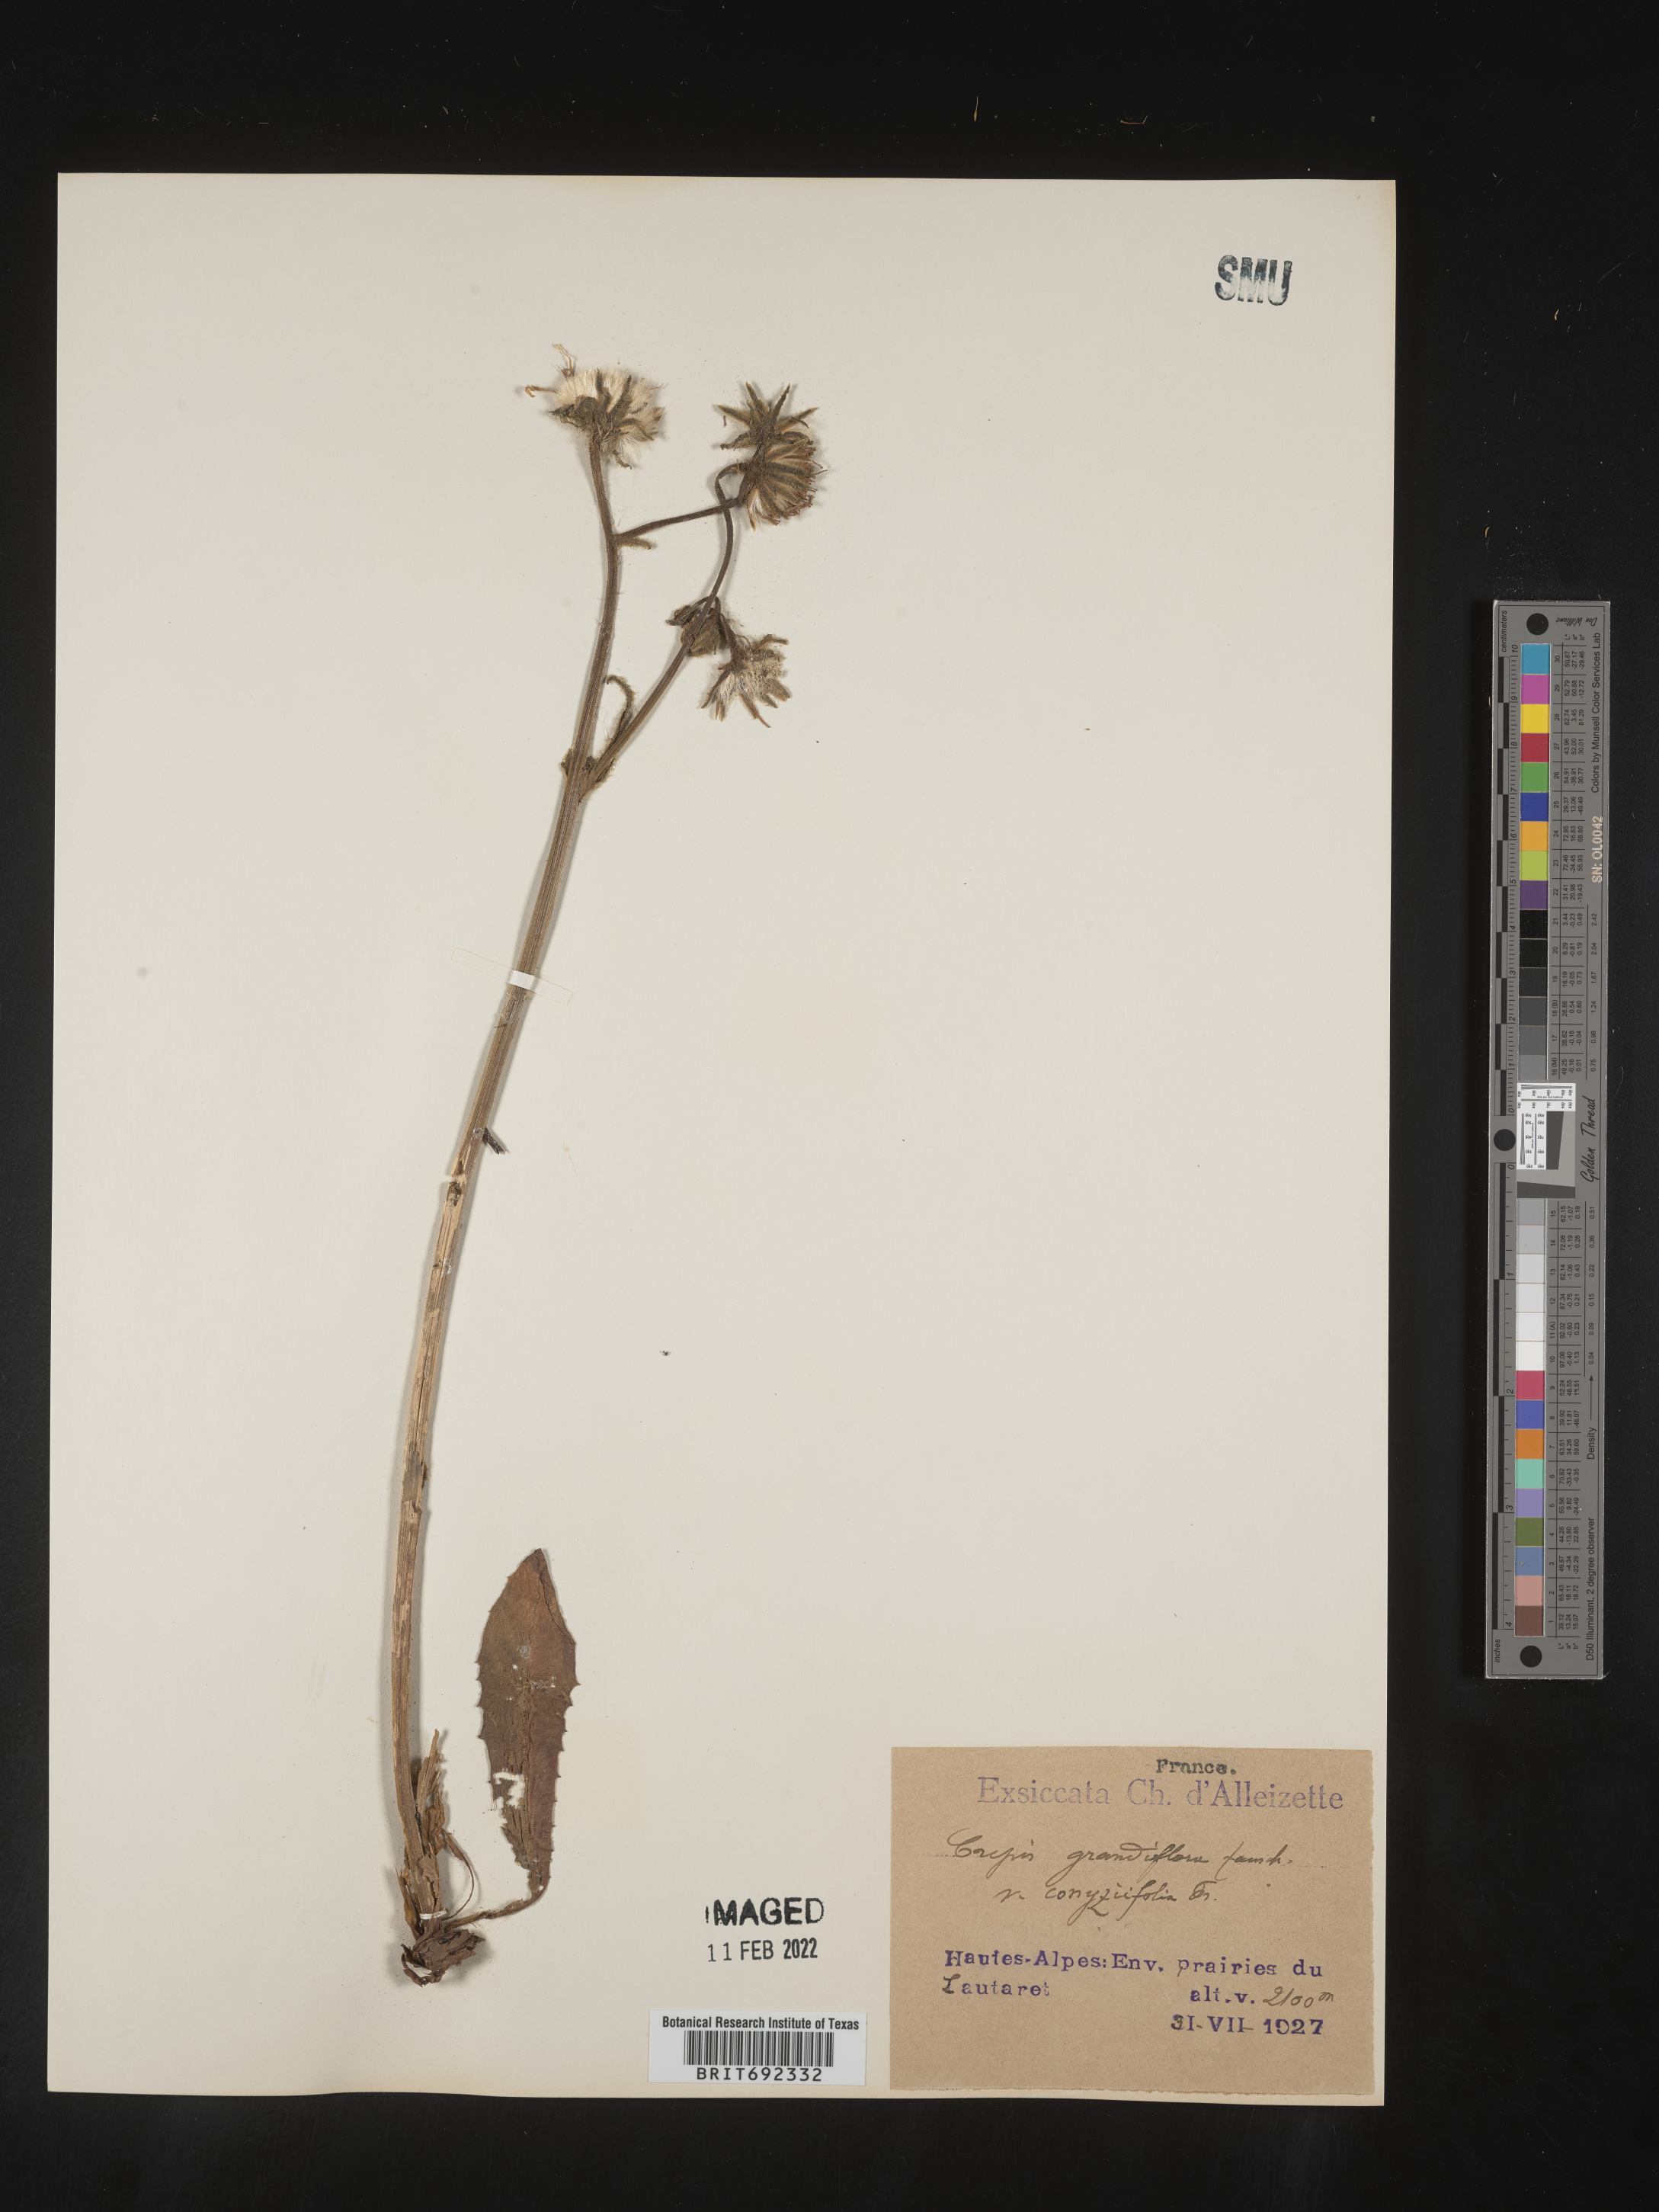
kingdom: Plantae
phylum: Tracheophyta
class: Magnoliopsida
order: Asterales
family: Asteraceae
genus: Crepis
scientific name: Crepis
